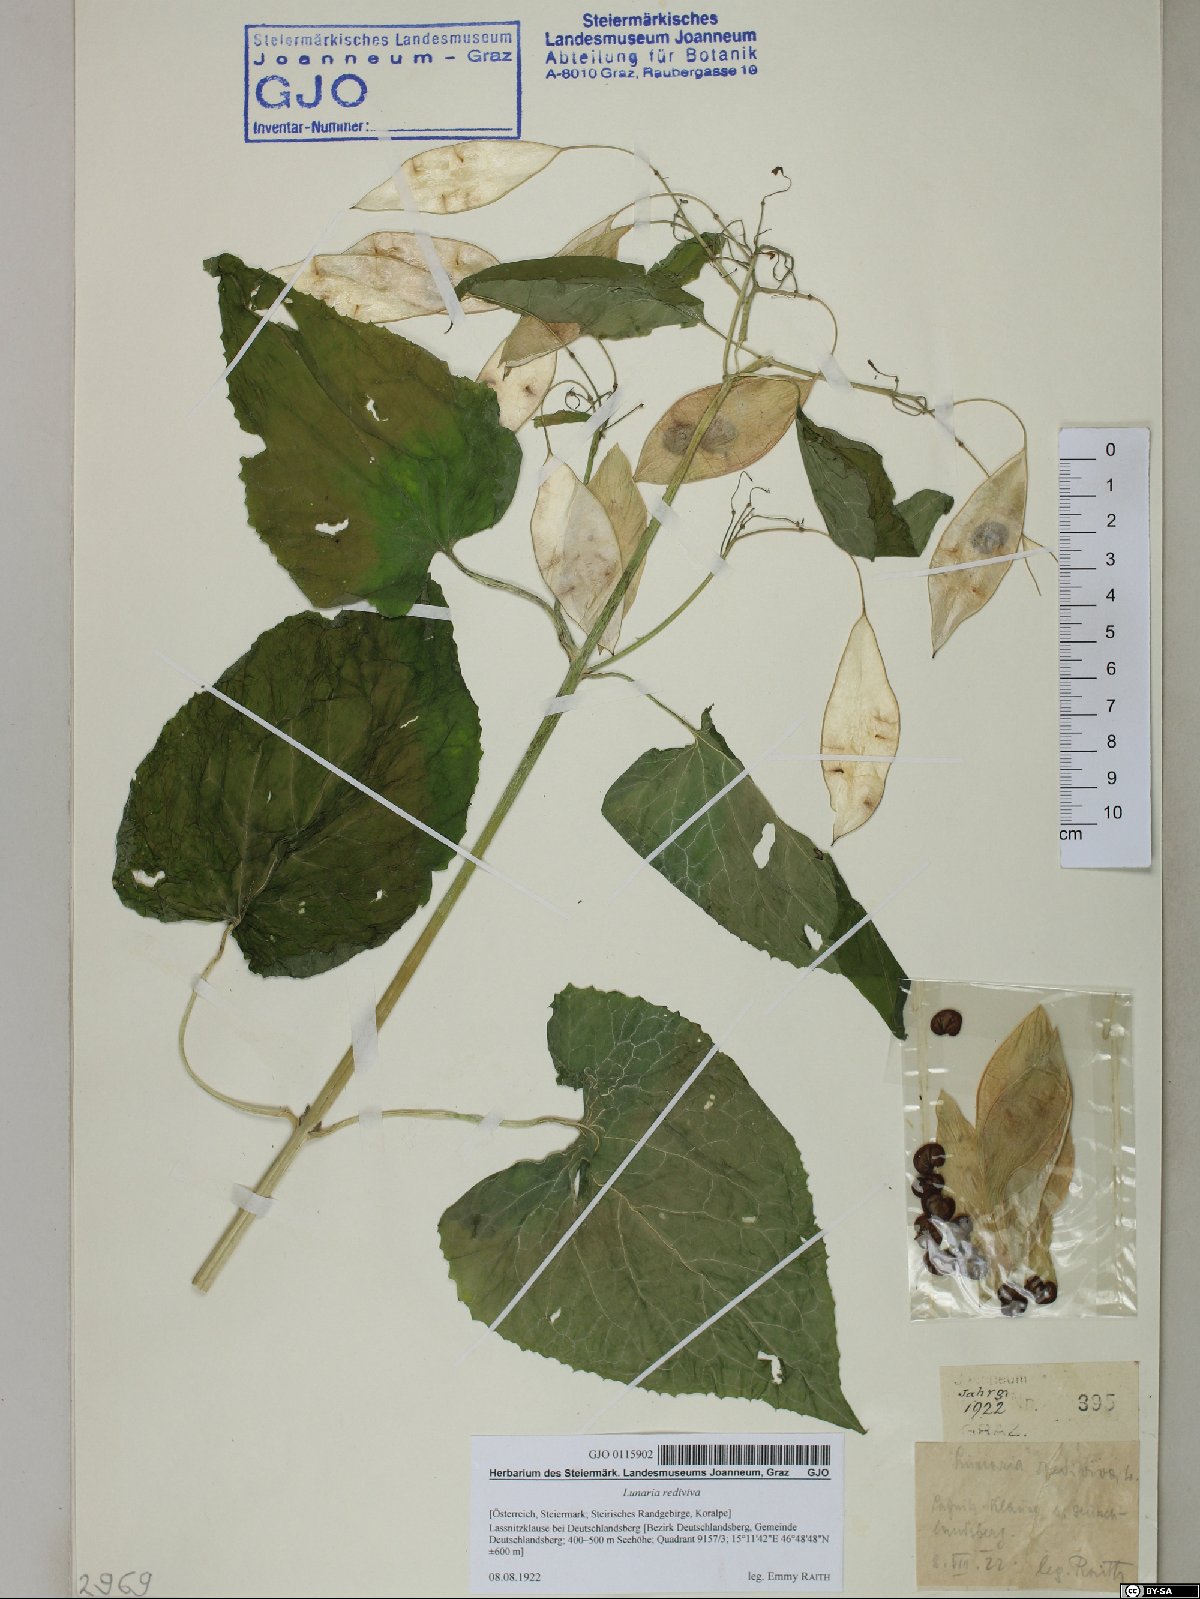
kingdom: Plantae
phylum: Tracheophyta
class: Magnoliopsida
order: Brassicales
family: Brassicaceae
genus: Lunaria
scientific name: Lunaria rediviva
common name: Perennial honesty
